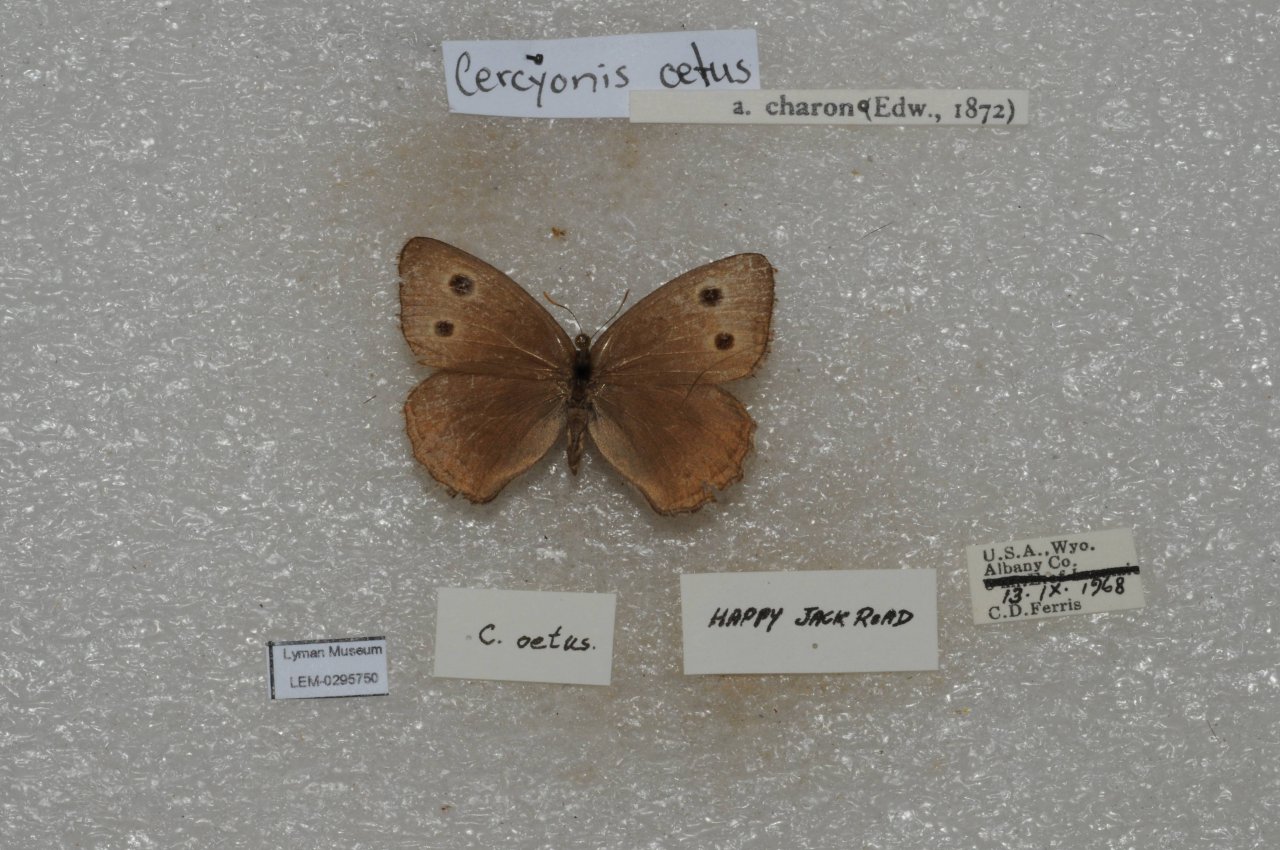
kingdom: Animalia
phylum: Arthropoda
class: Insecta
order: Lepidoptera
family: Nymphalidae
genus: Cercyonis
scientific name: Cercyonis oetus
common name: Small Wood-Nymph
